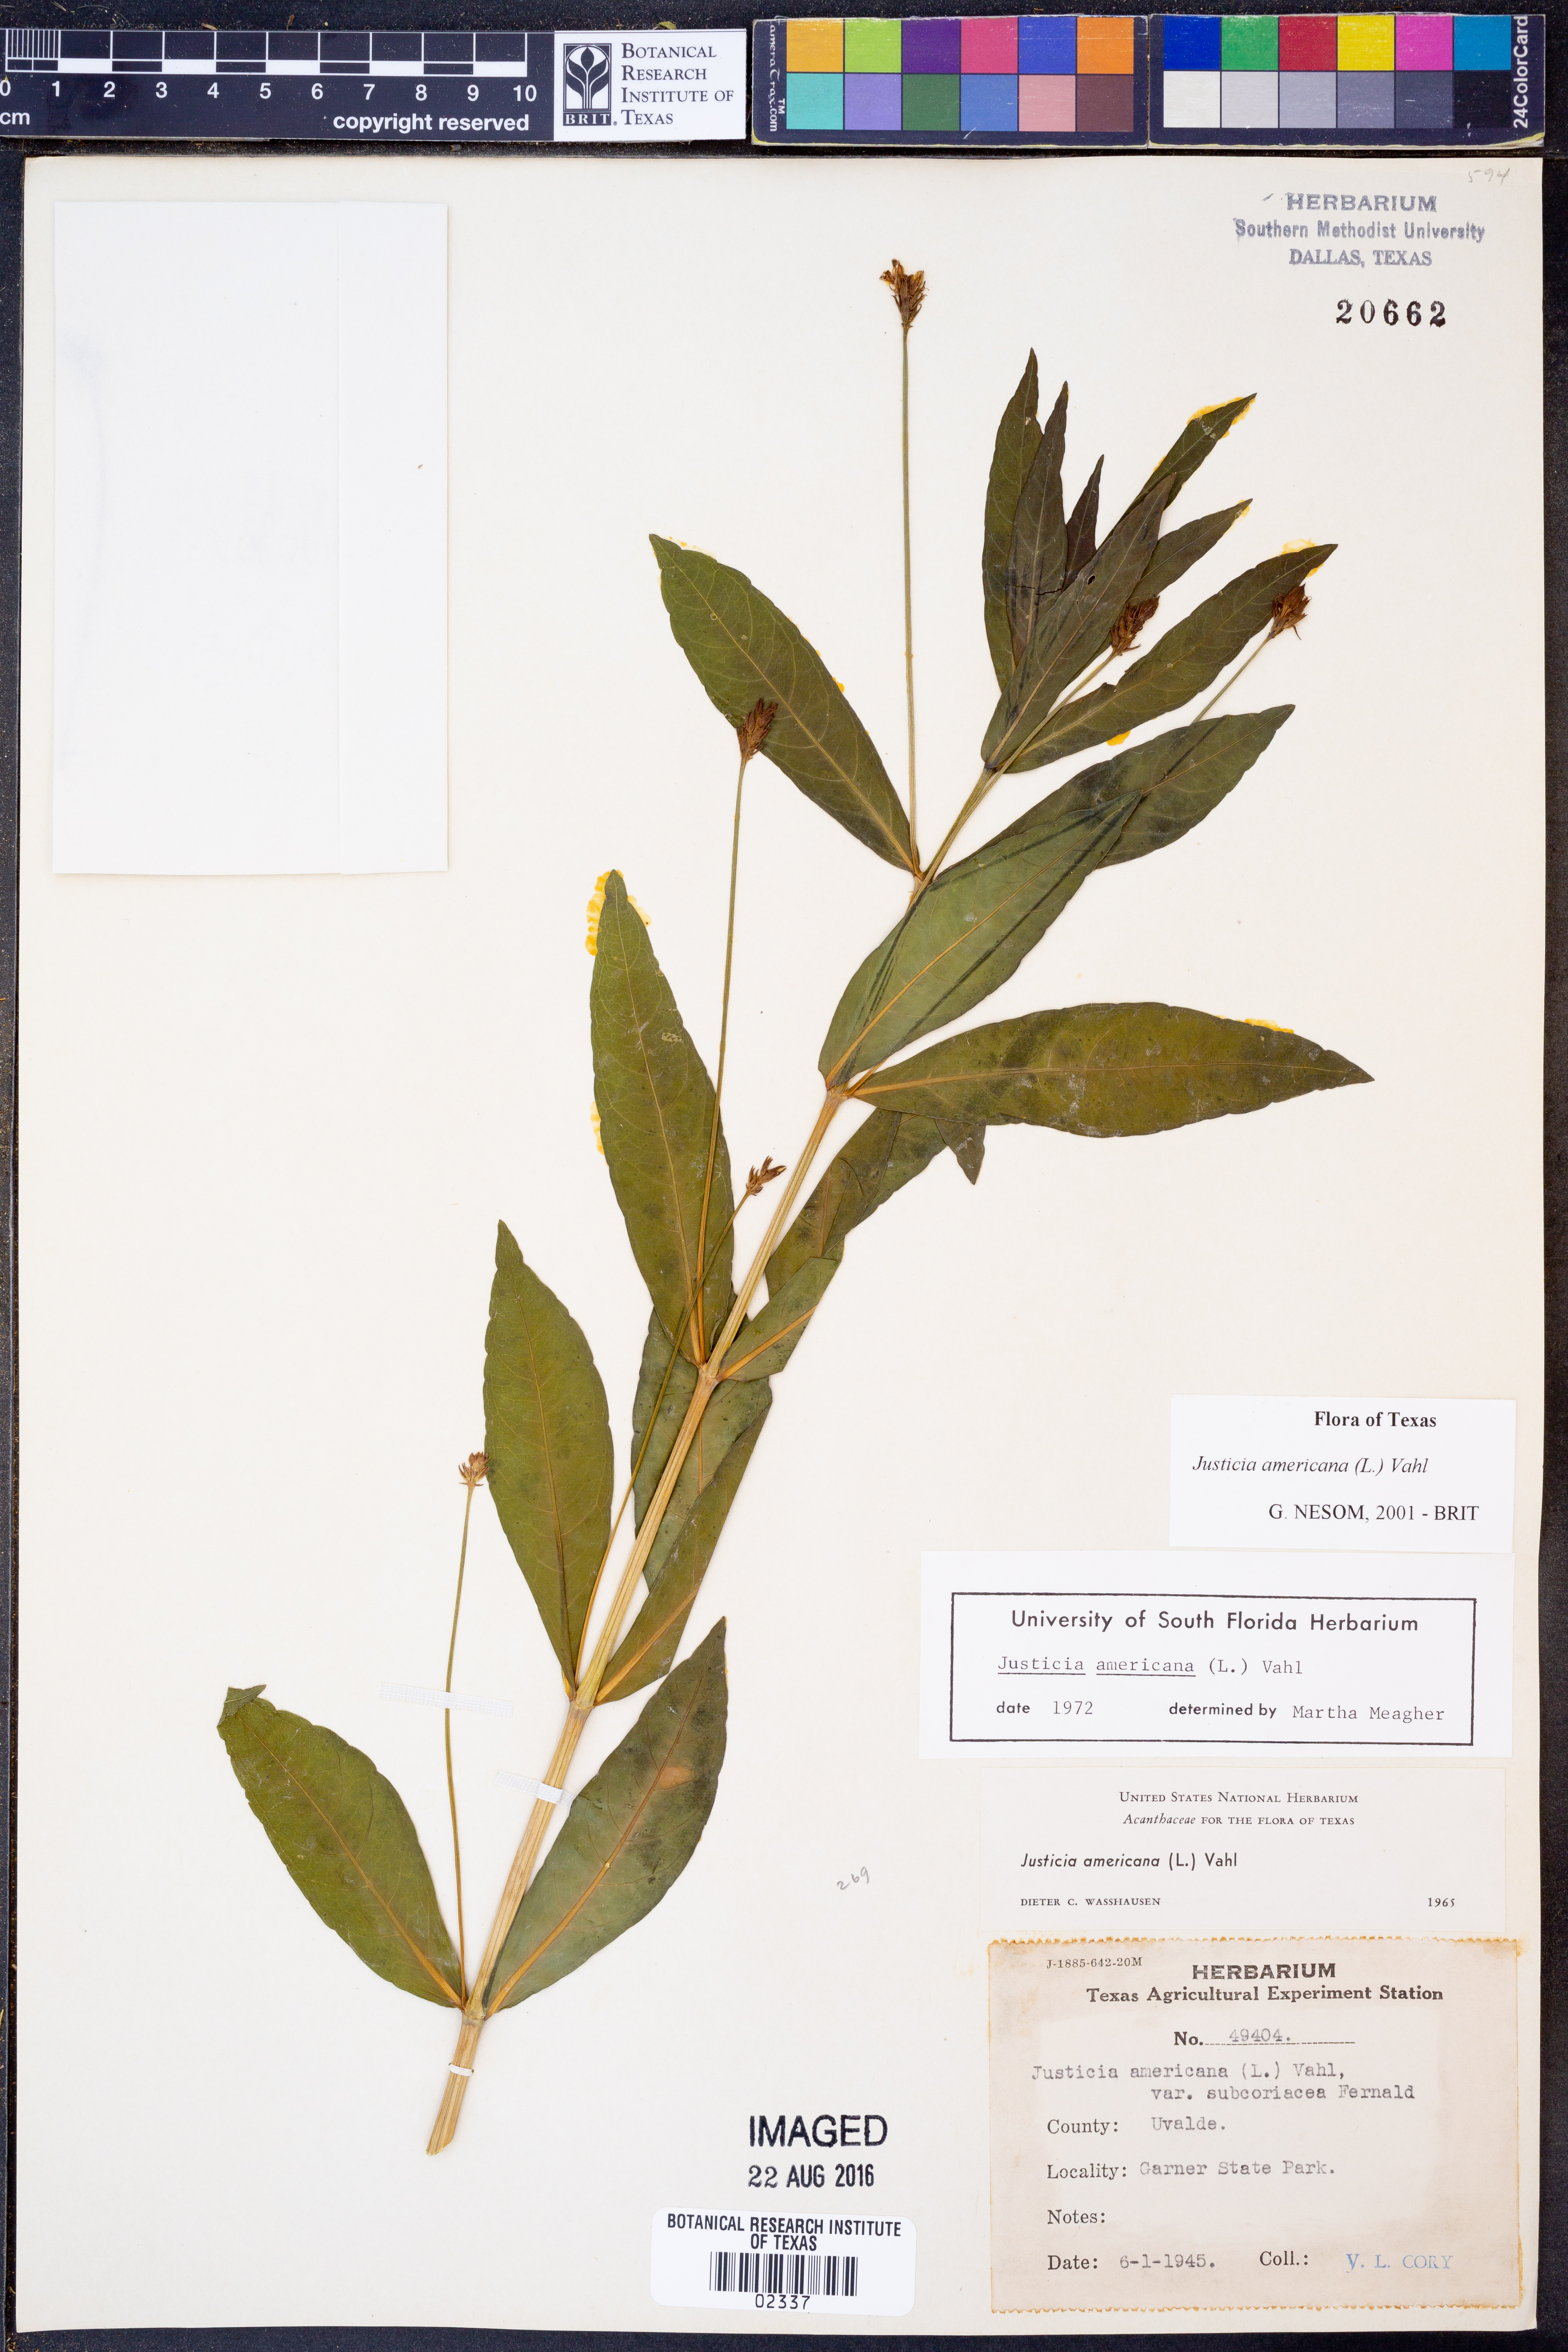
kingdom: Plantae
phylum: Tracheophyta
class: Magnoliopsida
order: Lamiales
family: Acanthaceae
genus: Dianthera
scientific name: Dianthera americana
